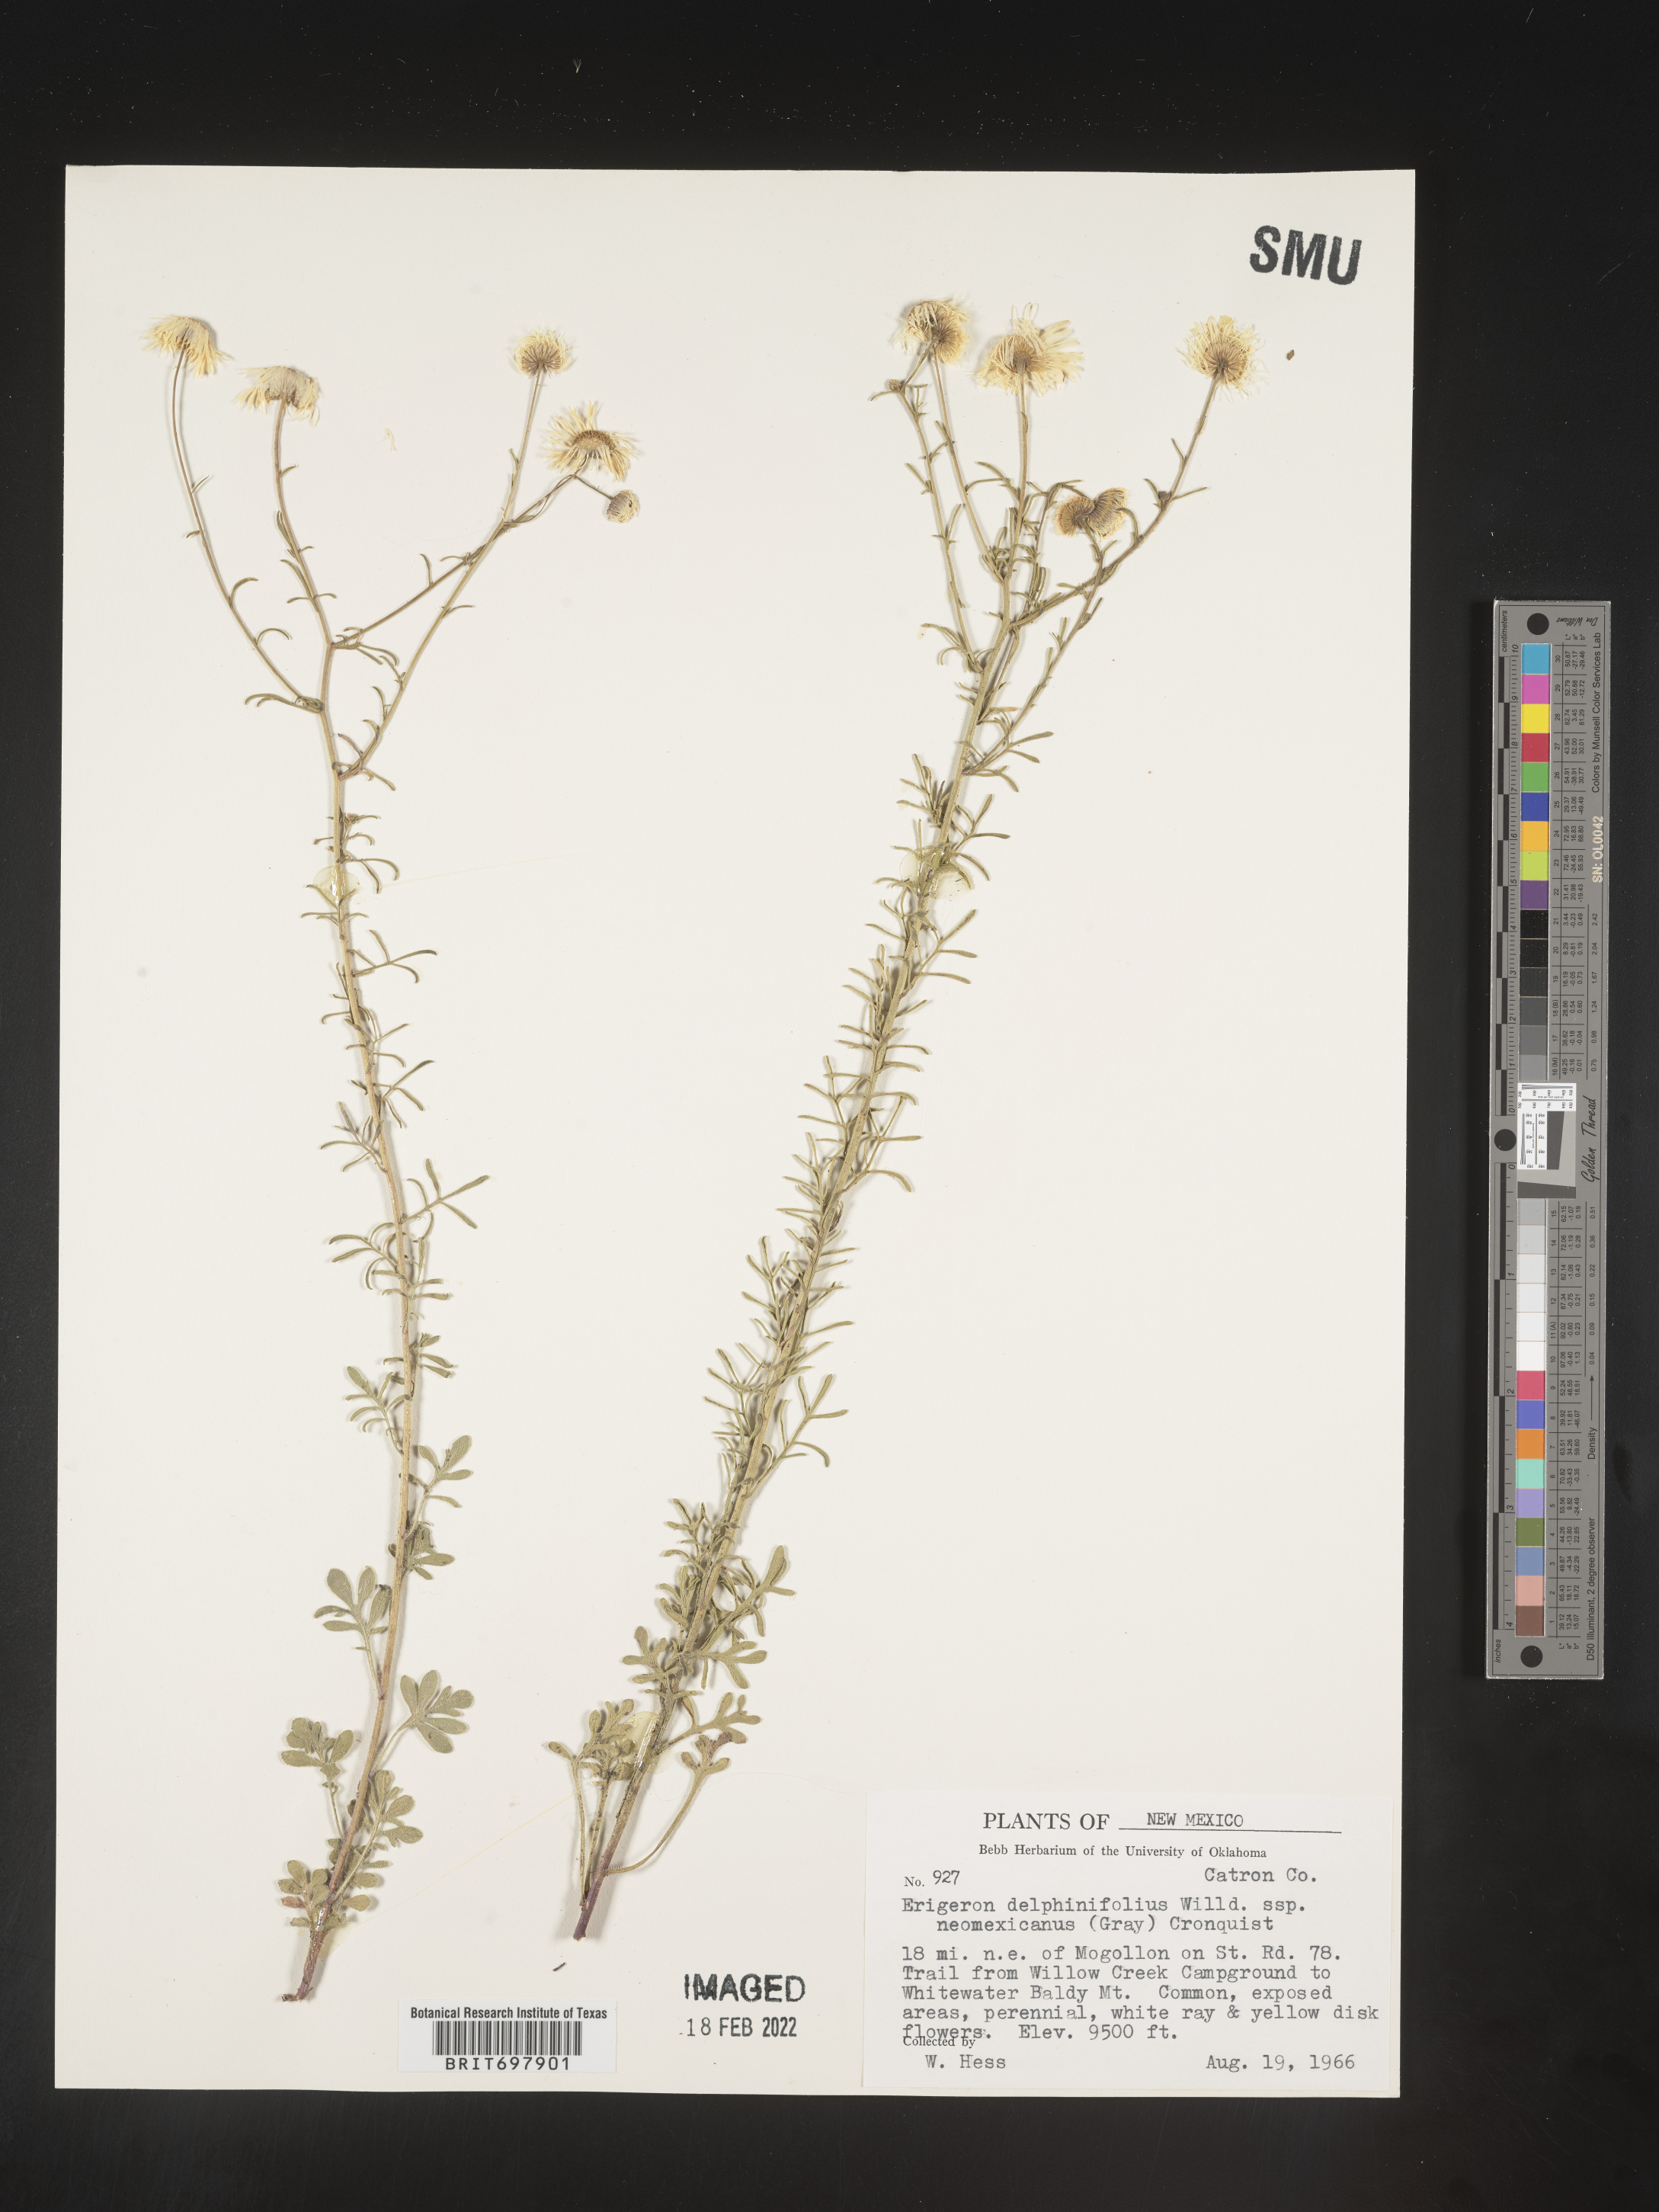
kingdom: Plantae
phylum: Tracheophyta
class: Magnoliopsida
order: Asterales
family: Asteraceae
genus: Erigeron
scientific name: Erigeron oreophilus
